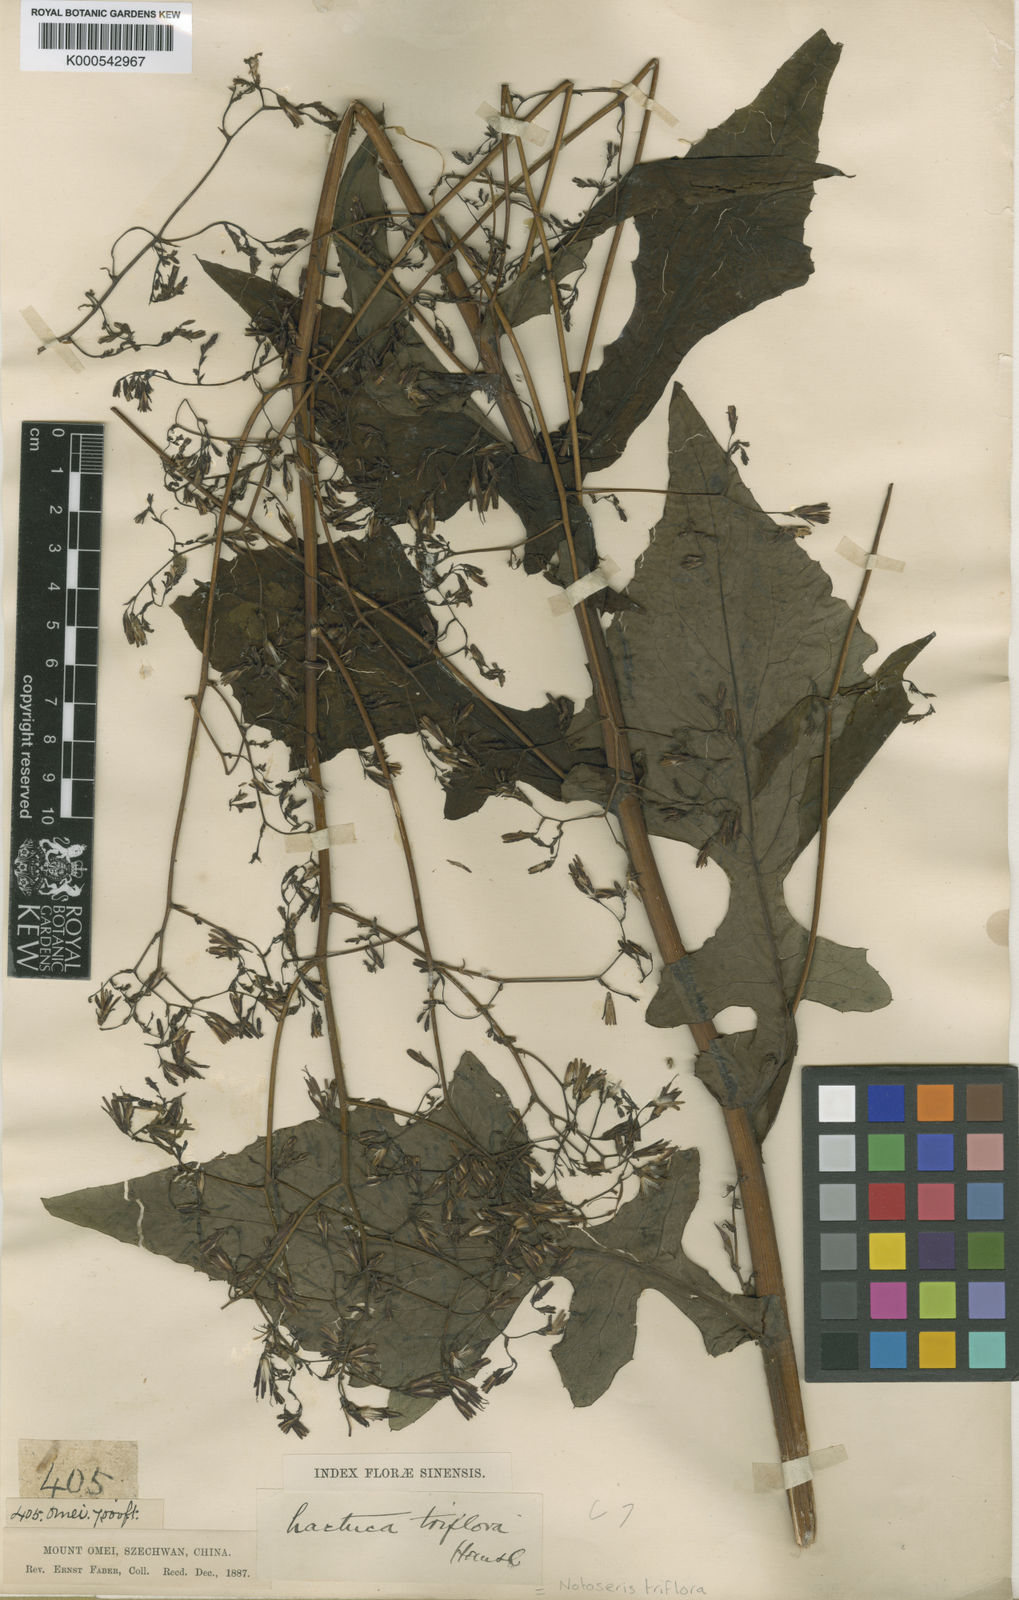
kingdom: Plantae
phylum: Tracheophyta
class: Magnoliopsida
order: Asterales
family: Asteraceae
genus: Notoseris
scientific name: Notoseris triflora
